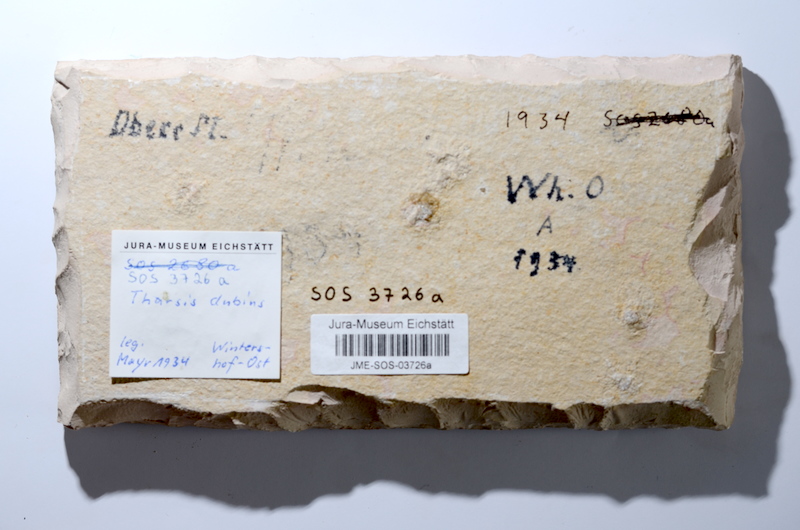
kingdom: Animalia
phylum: Chordata
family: Ascalaboidae
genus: Tharsis
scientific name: Tharsis dubius
